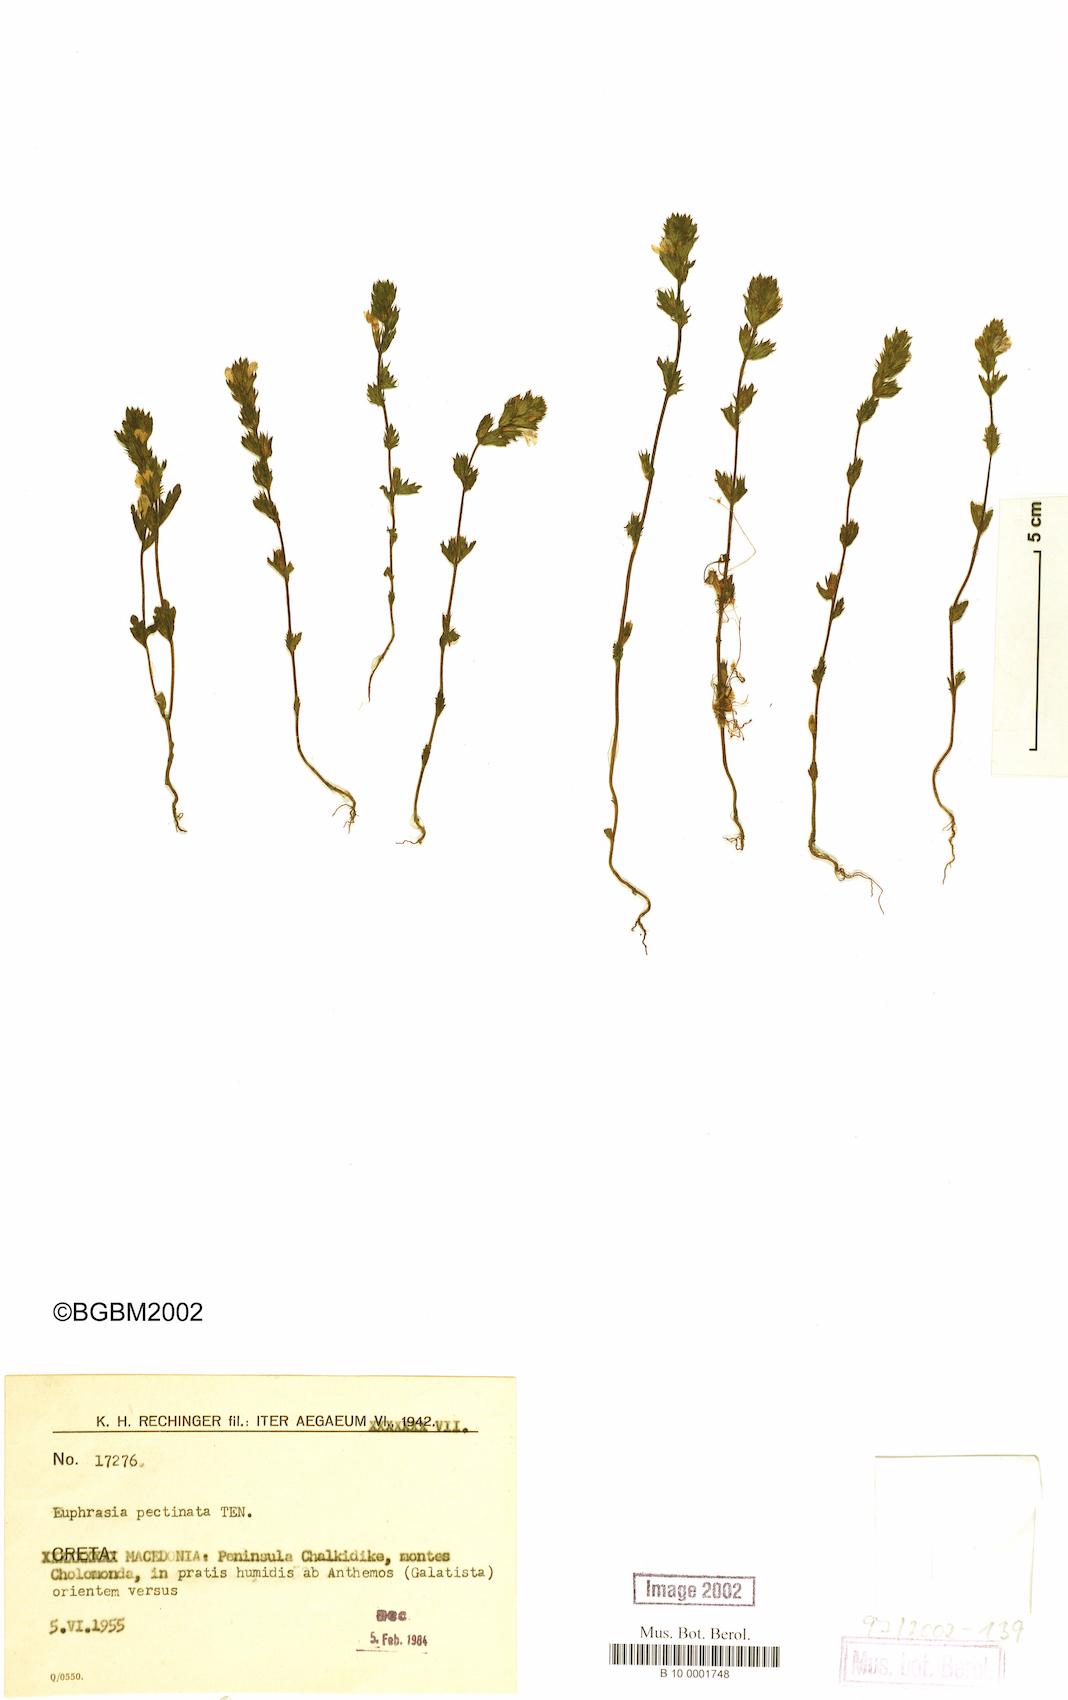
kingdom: Plantae
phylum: Tracheophyta
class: Magnoliopsida
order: Lamiales
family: Orobanchaceae
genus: Euphrasia
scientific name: Euphrasia pectinata
